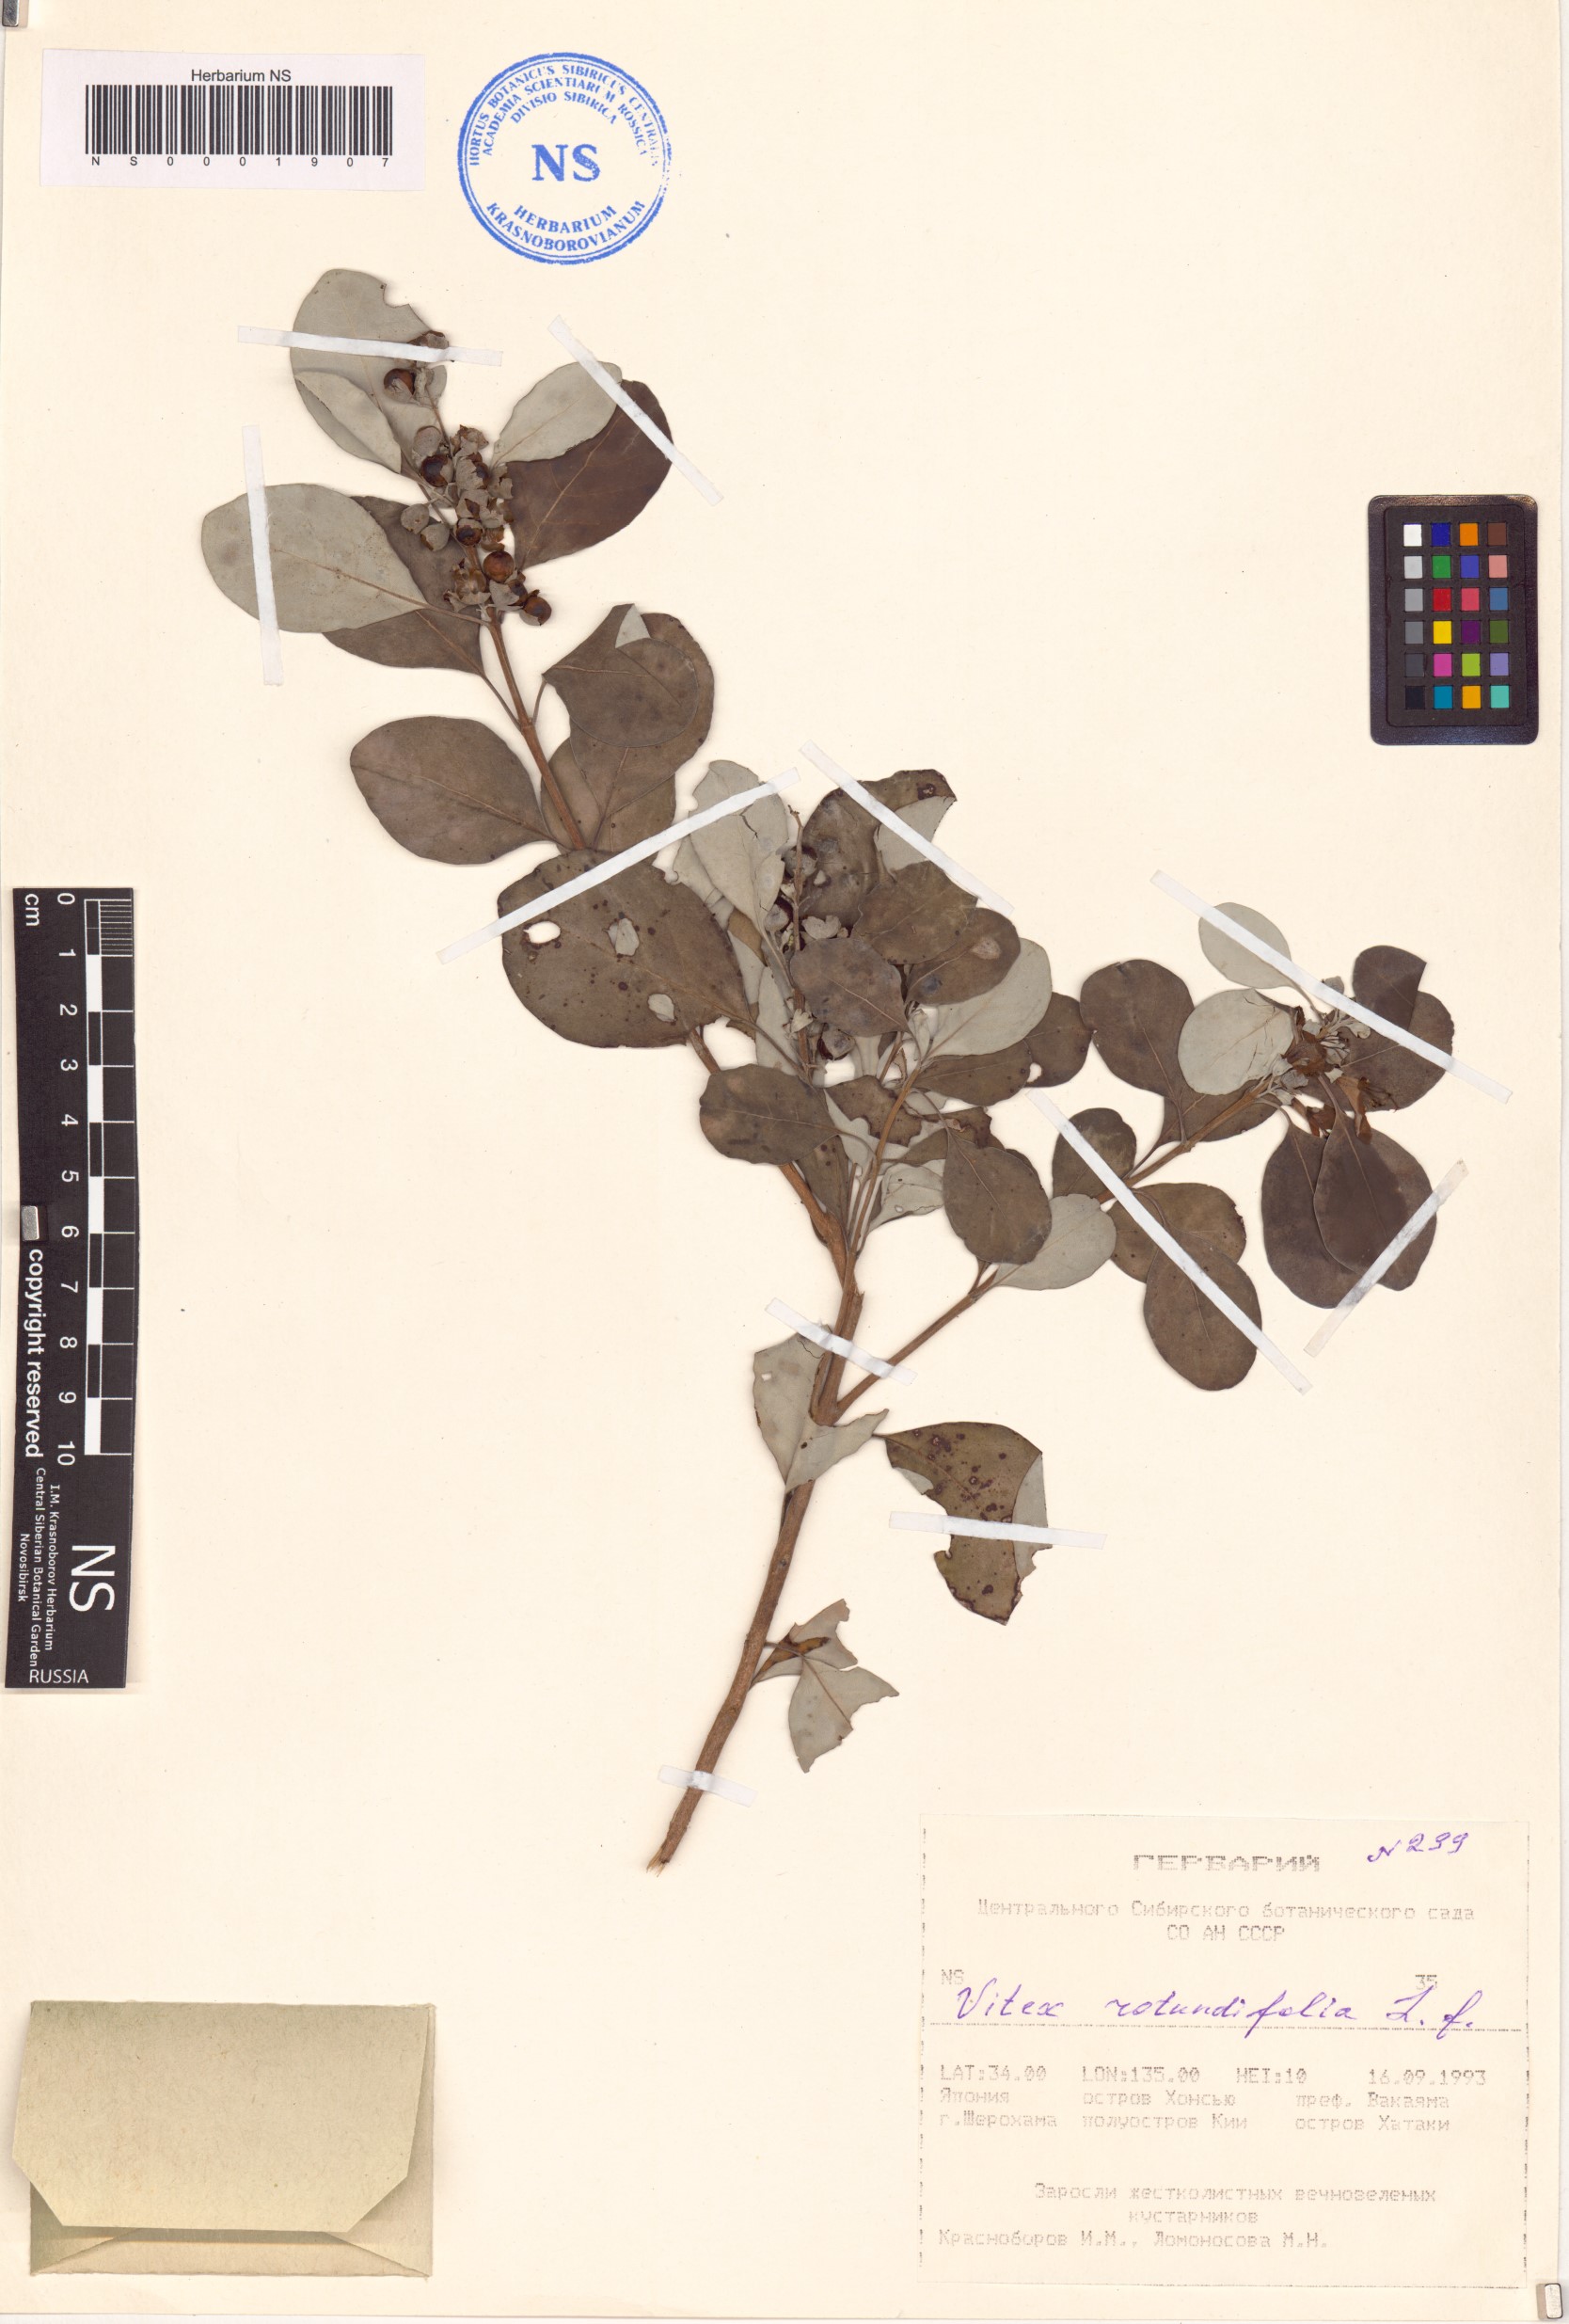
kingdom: Plantae
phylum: Tracheophyta
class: Magnoliopsida
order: Lamiales
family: Lamiaceae
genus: Vitex
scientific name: Vitex rotundifolia
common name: Beach vitex
